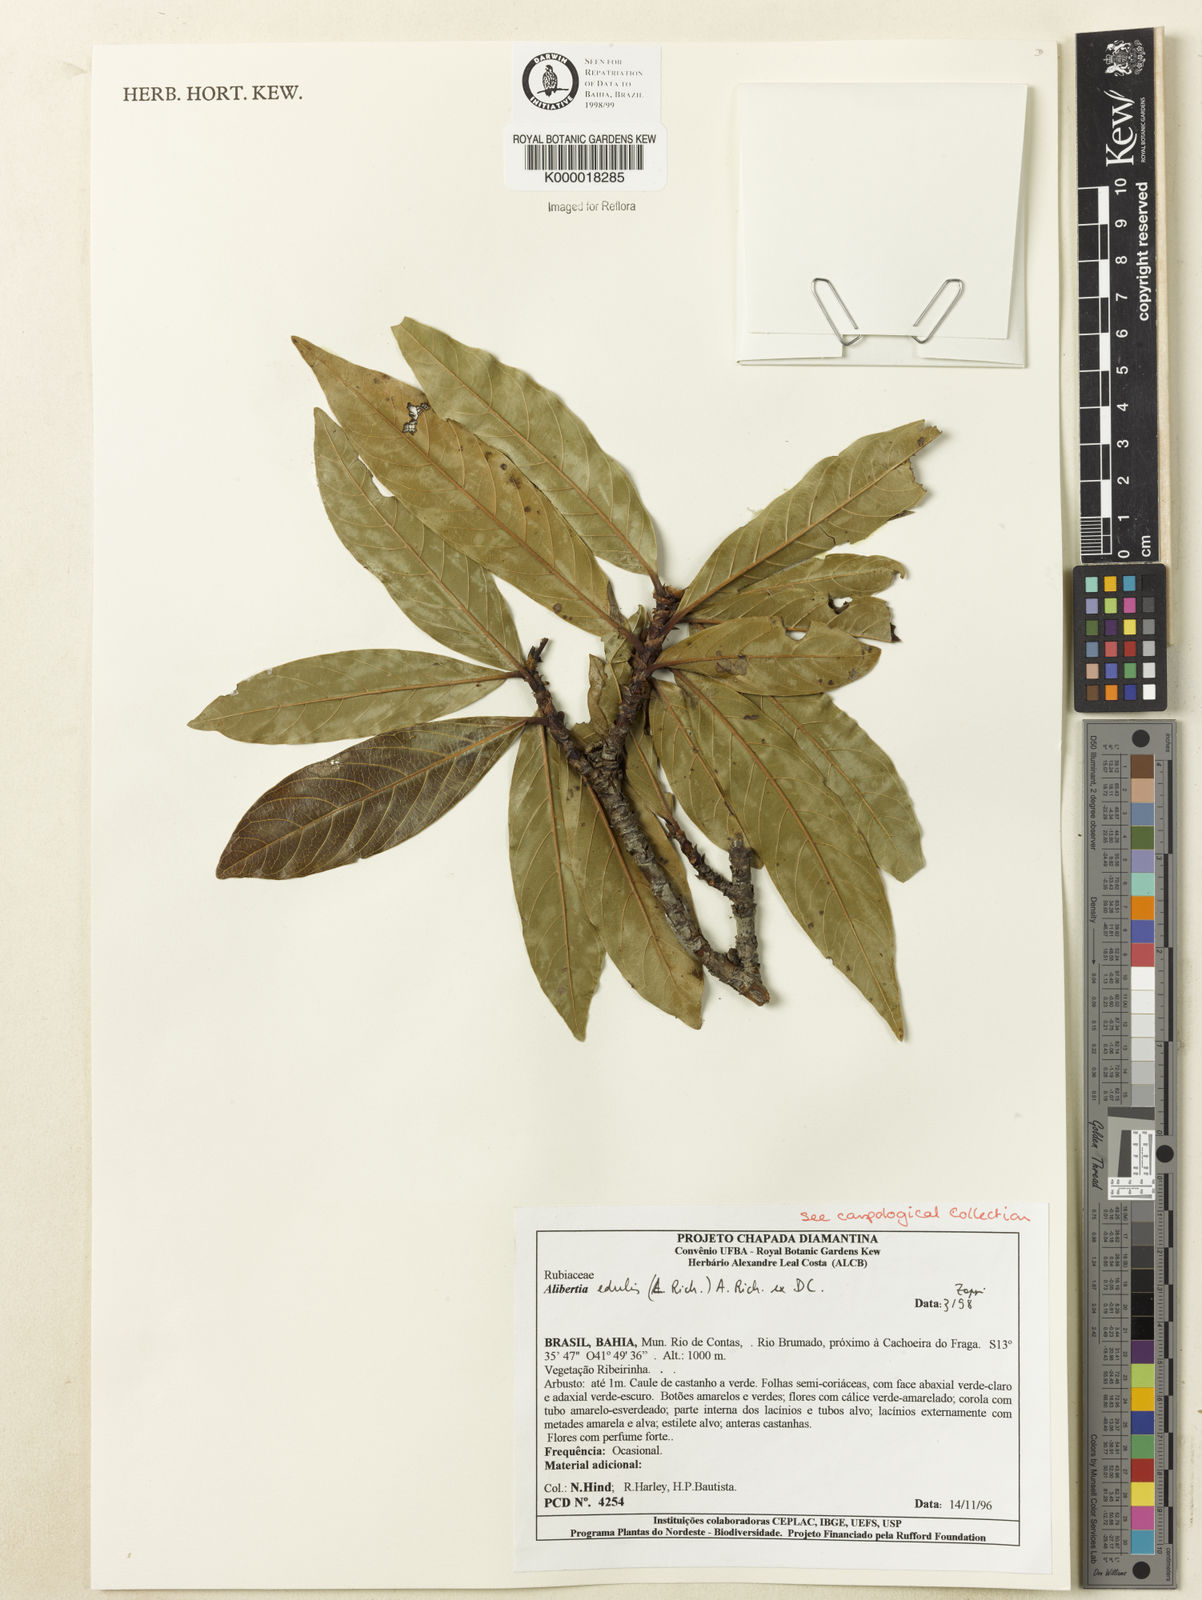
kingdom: Plantae
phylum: Tracheophyta
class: Magnoliopsida
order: Gentianales
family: Rubiaceae
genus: Alibertia
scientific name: Alibertia edulis
